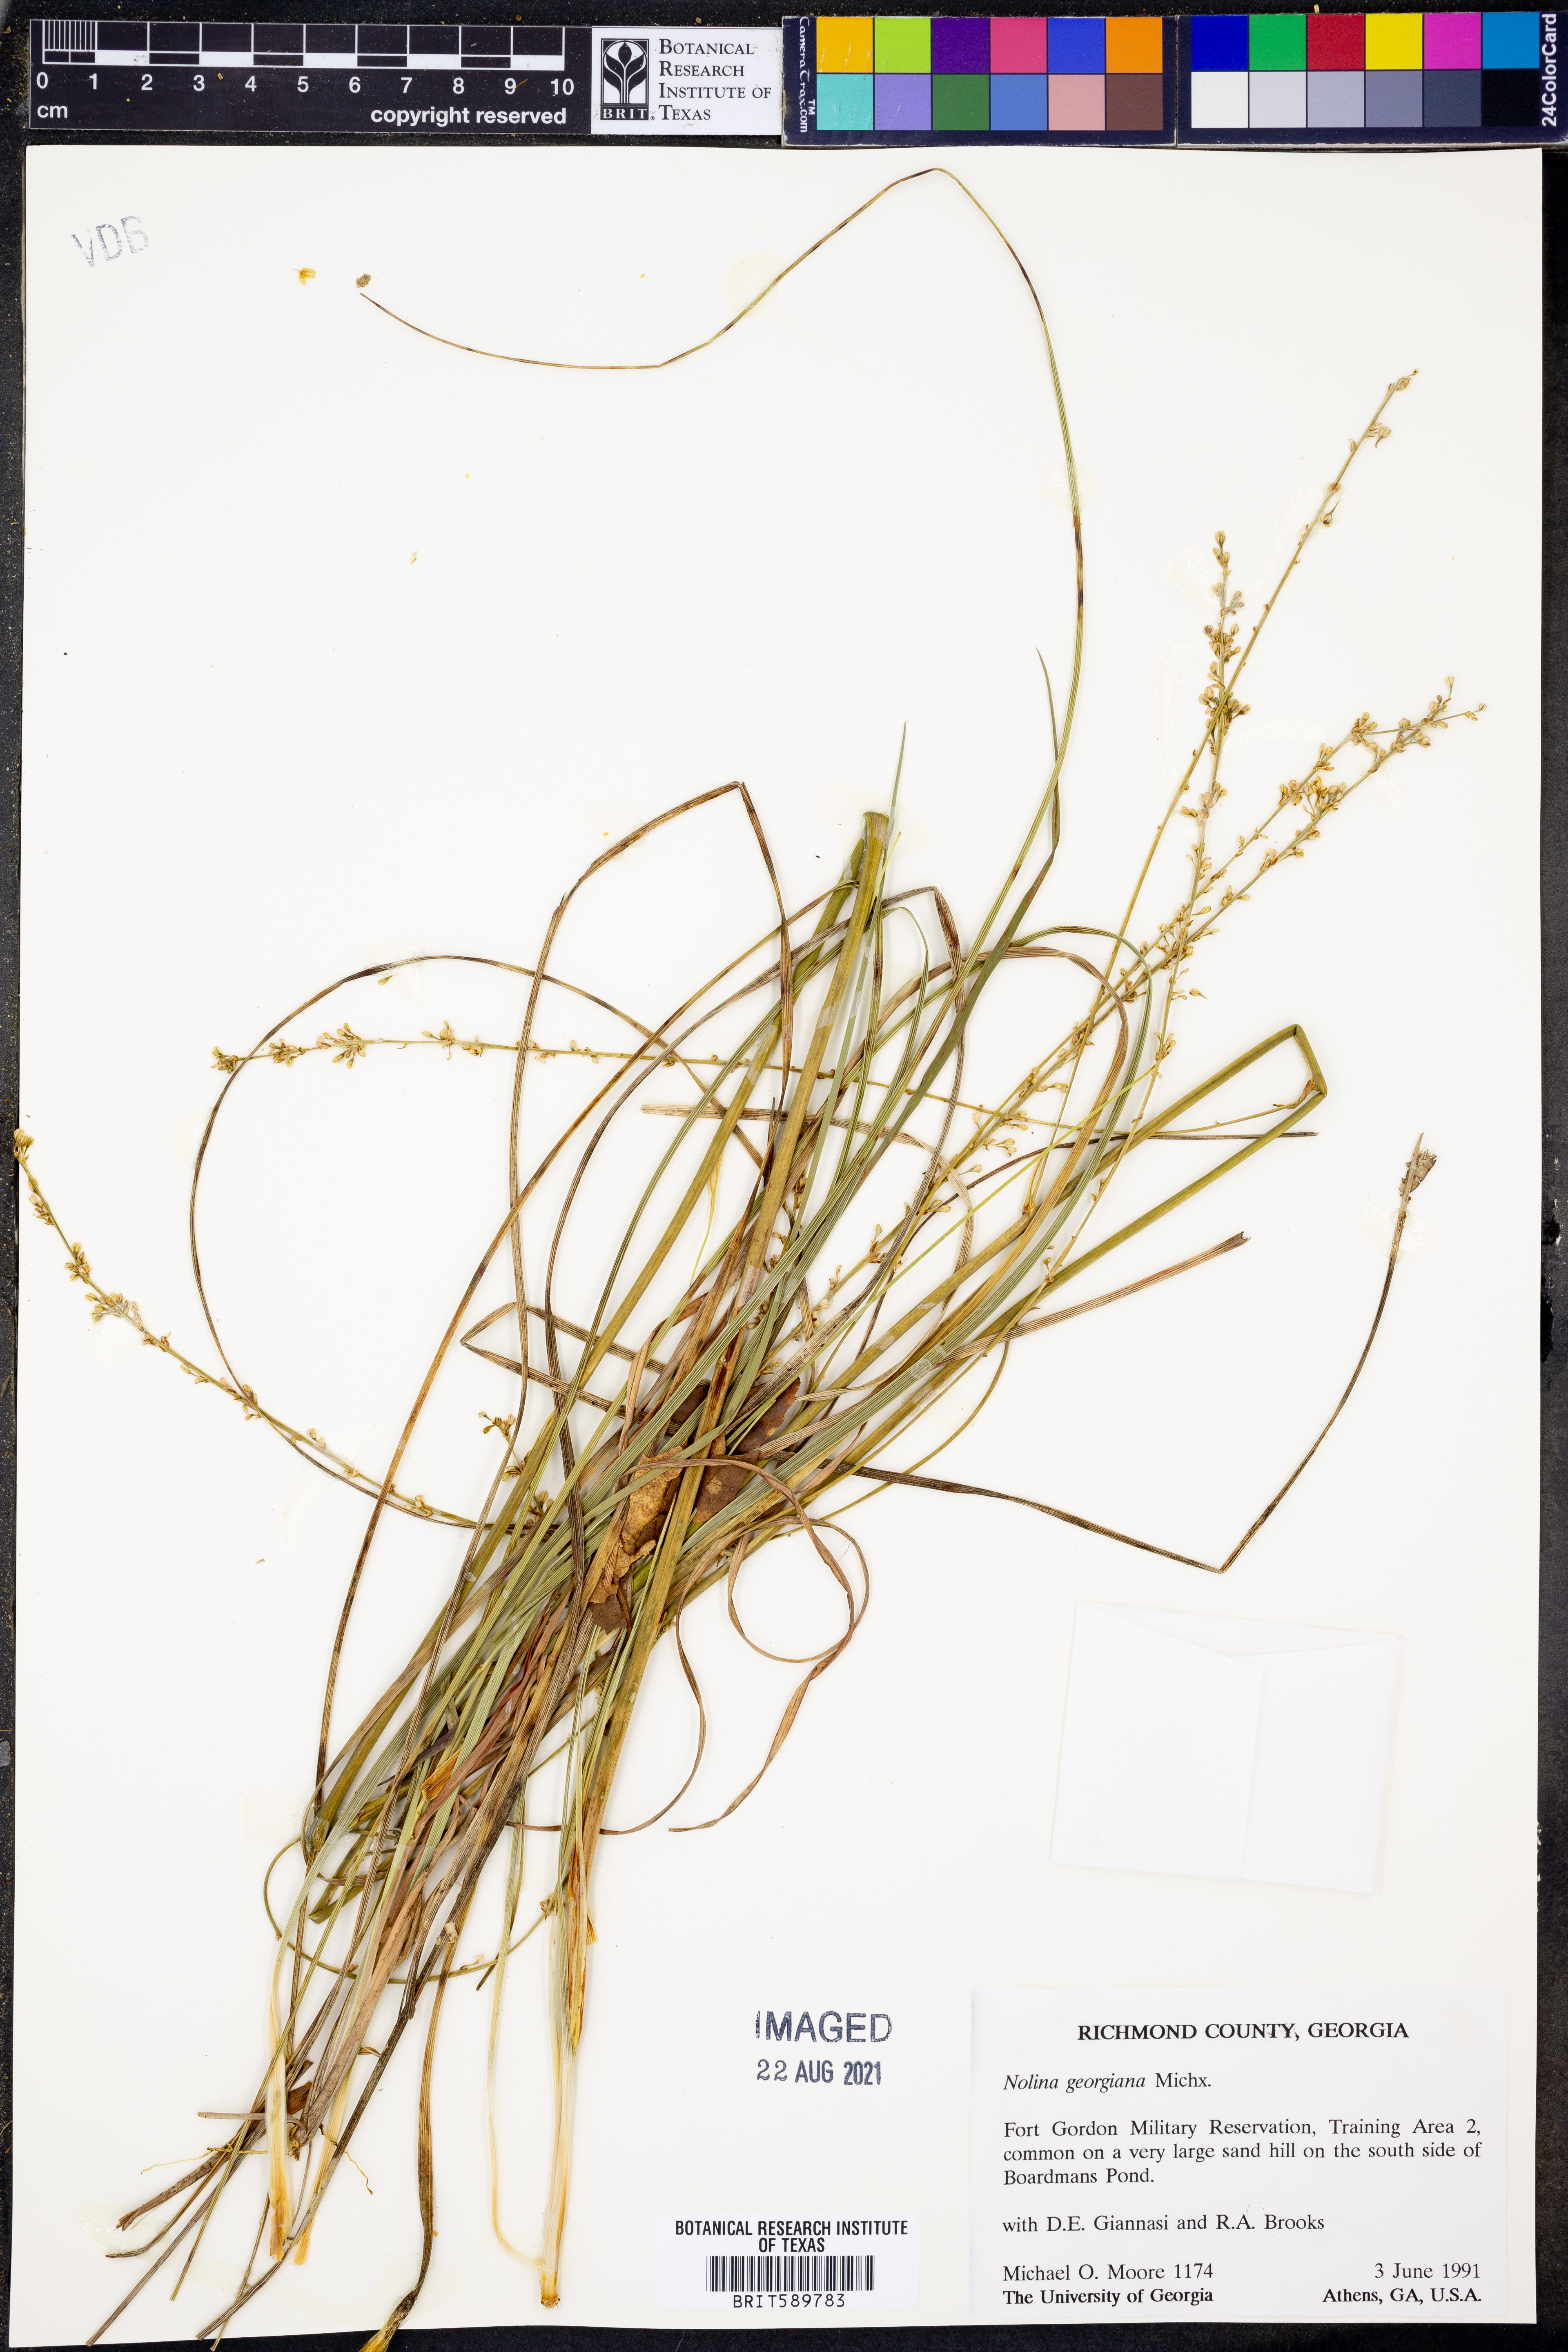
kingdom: Plantae
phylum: Tracheophyta
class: Liliopsida
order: Asparagales
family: Asparagaceae
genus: Nolina
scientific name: Nolina georgiana
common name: Georgia bear-grass
